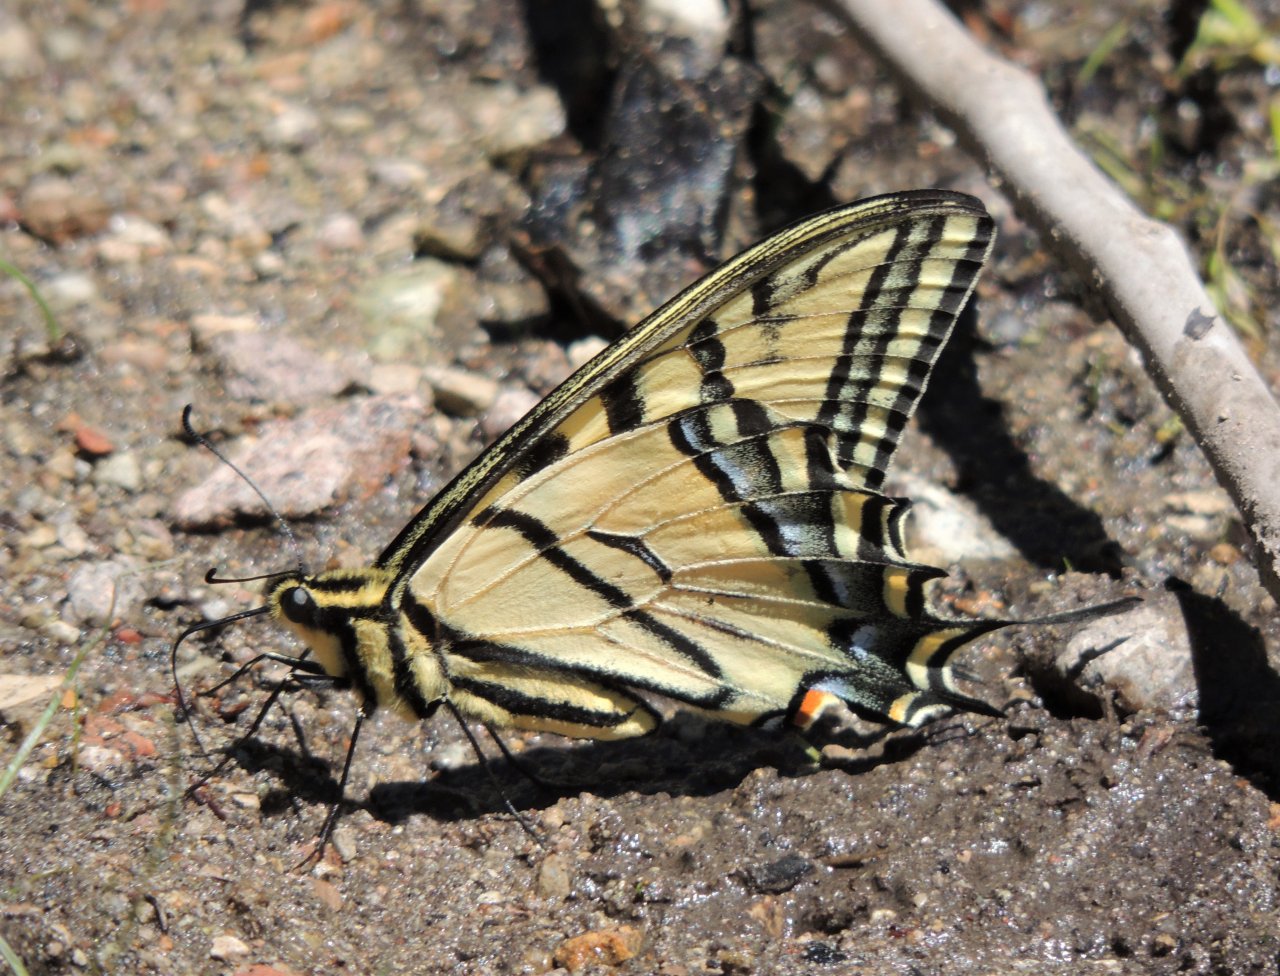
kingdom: Animalia
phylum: Arthropoda
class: Insecta
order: Lepidoptera
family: Papilionidae
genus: Papilio
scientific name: Papilio multicaudata
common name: Two-tailed Swallowtail
